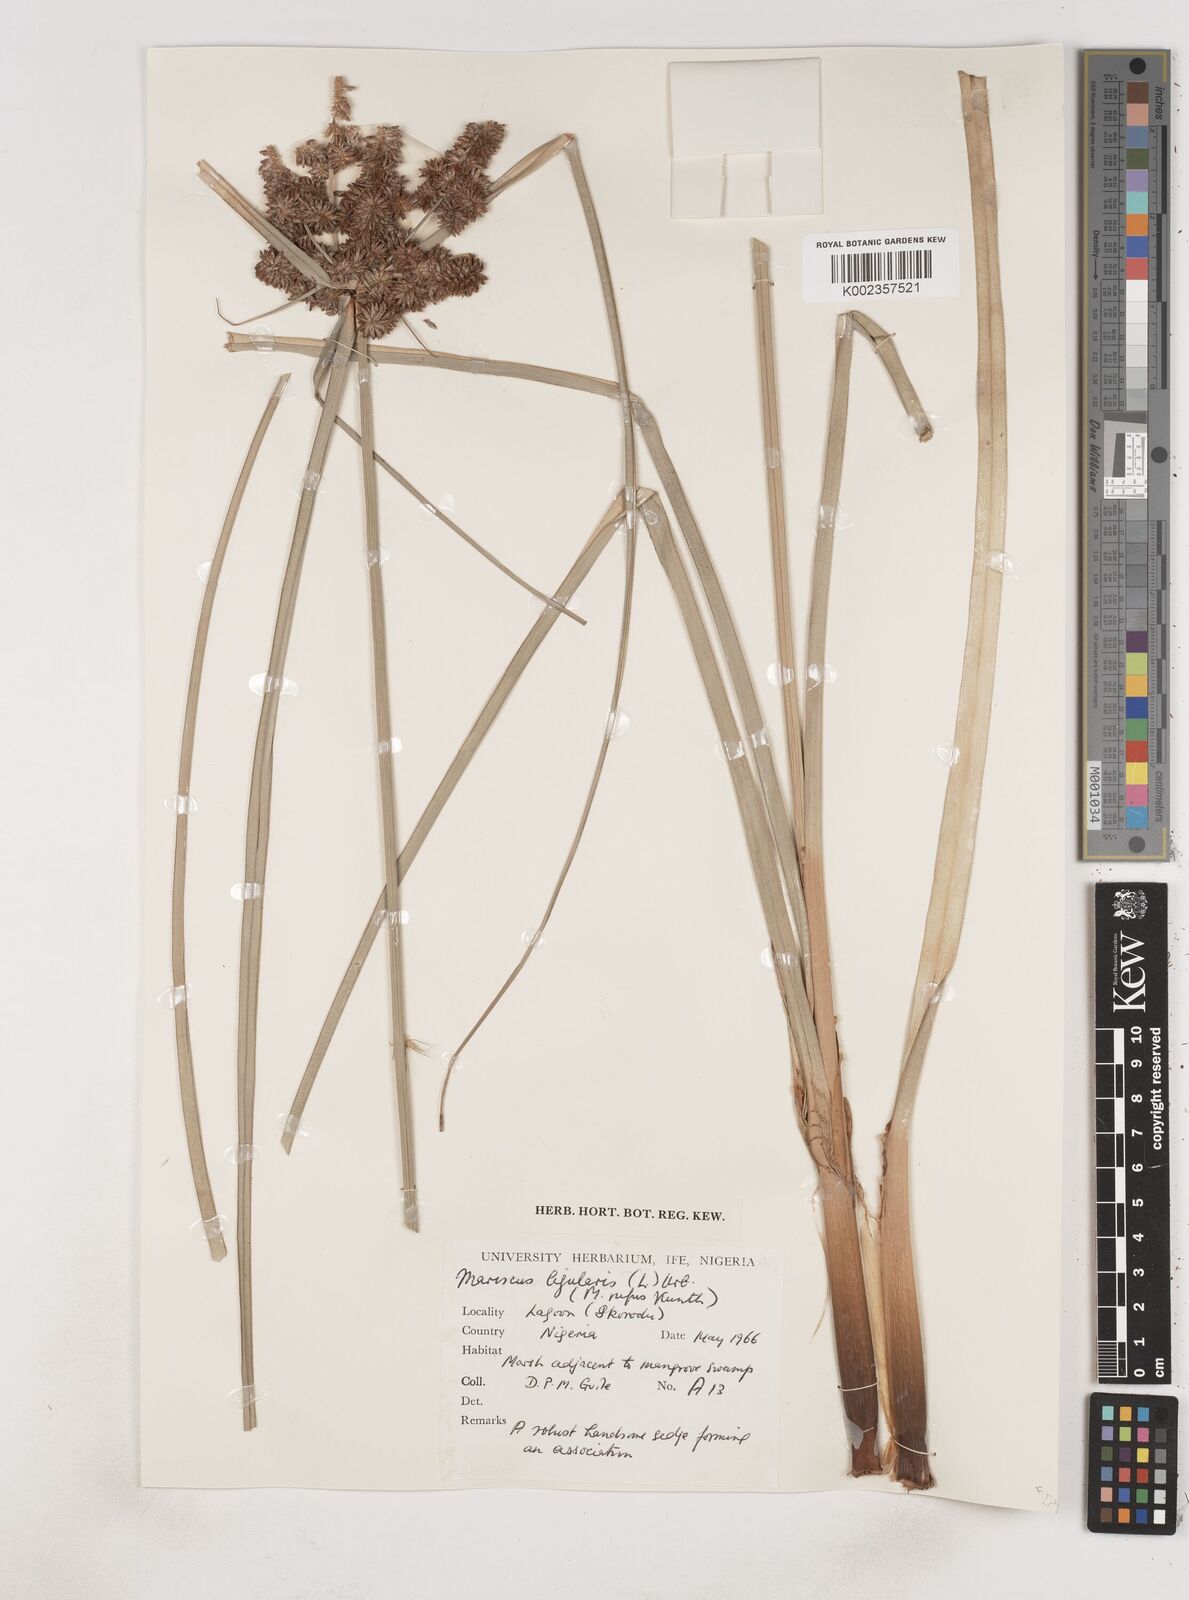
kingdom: Plantae
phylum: Tracheophyta
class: Liliopsida
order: Poales
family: Cyperaceae
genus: Cyperus
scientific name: Cyperus ligularis
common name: Swamp flat sedge
